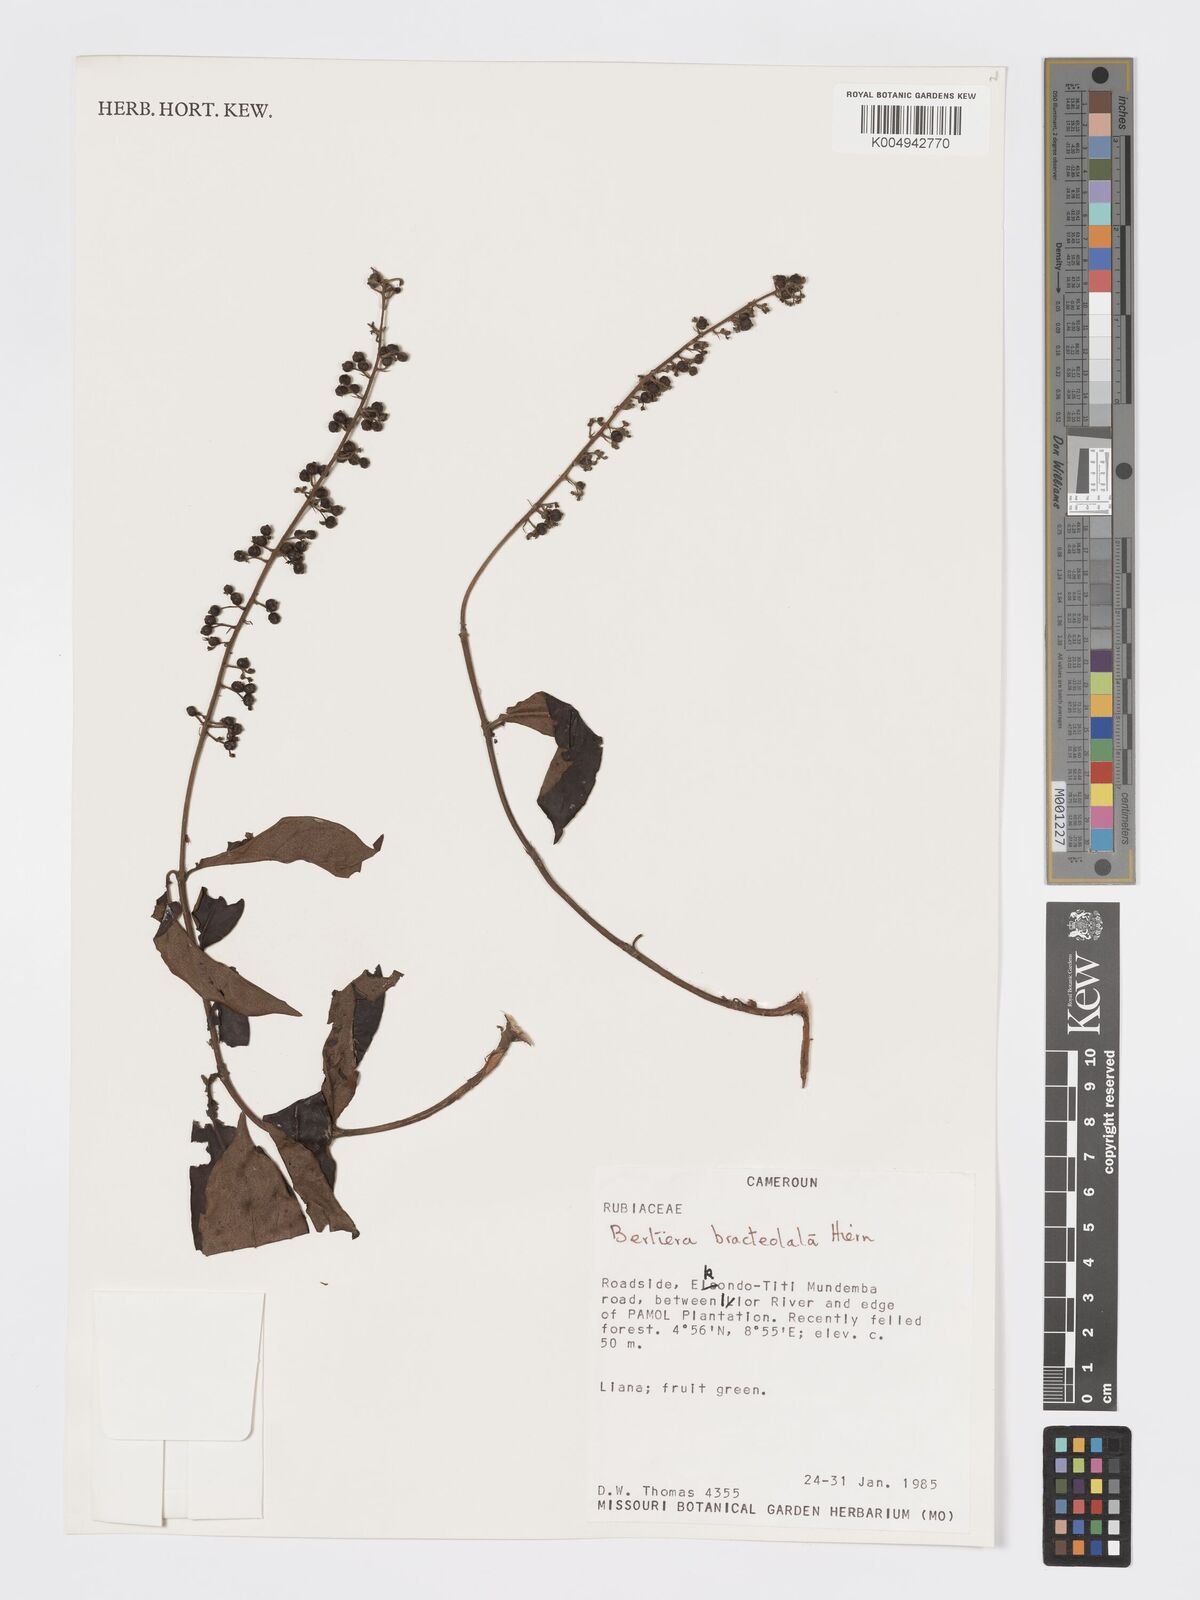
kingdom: Plantae
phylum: Tracheophyta
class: Magnoliopsida
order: Gentianales
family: Rubiaceae
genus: Bertiera
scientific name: Bertiera bracteolata
